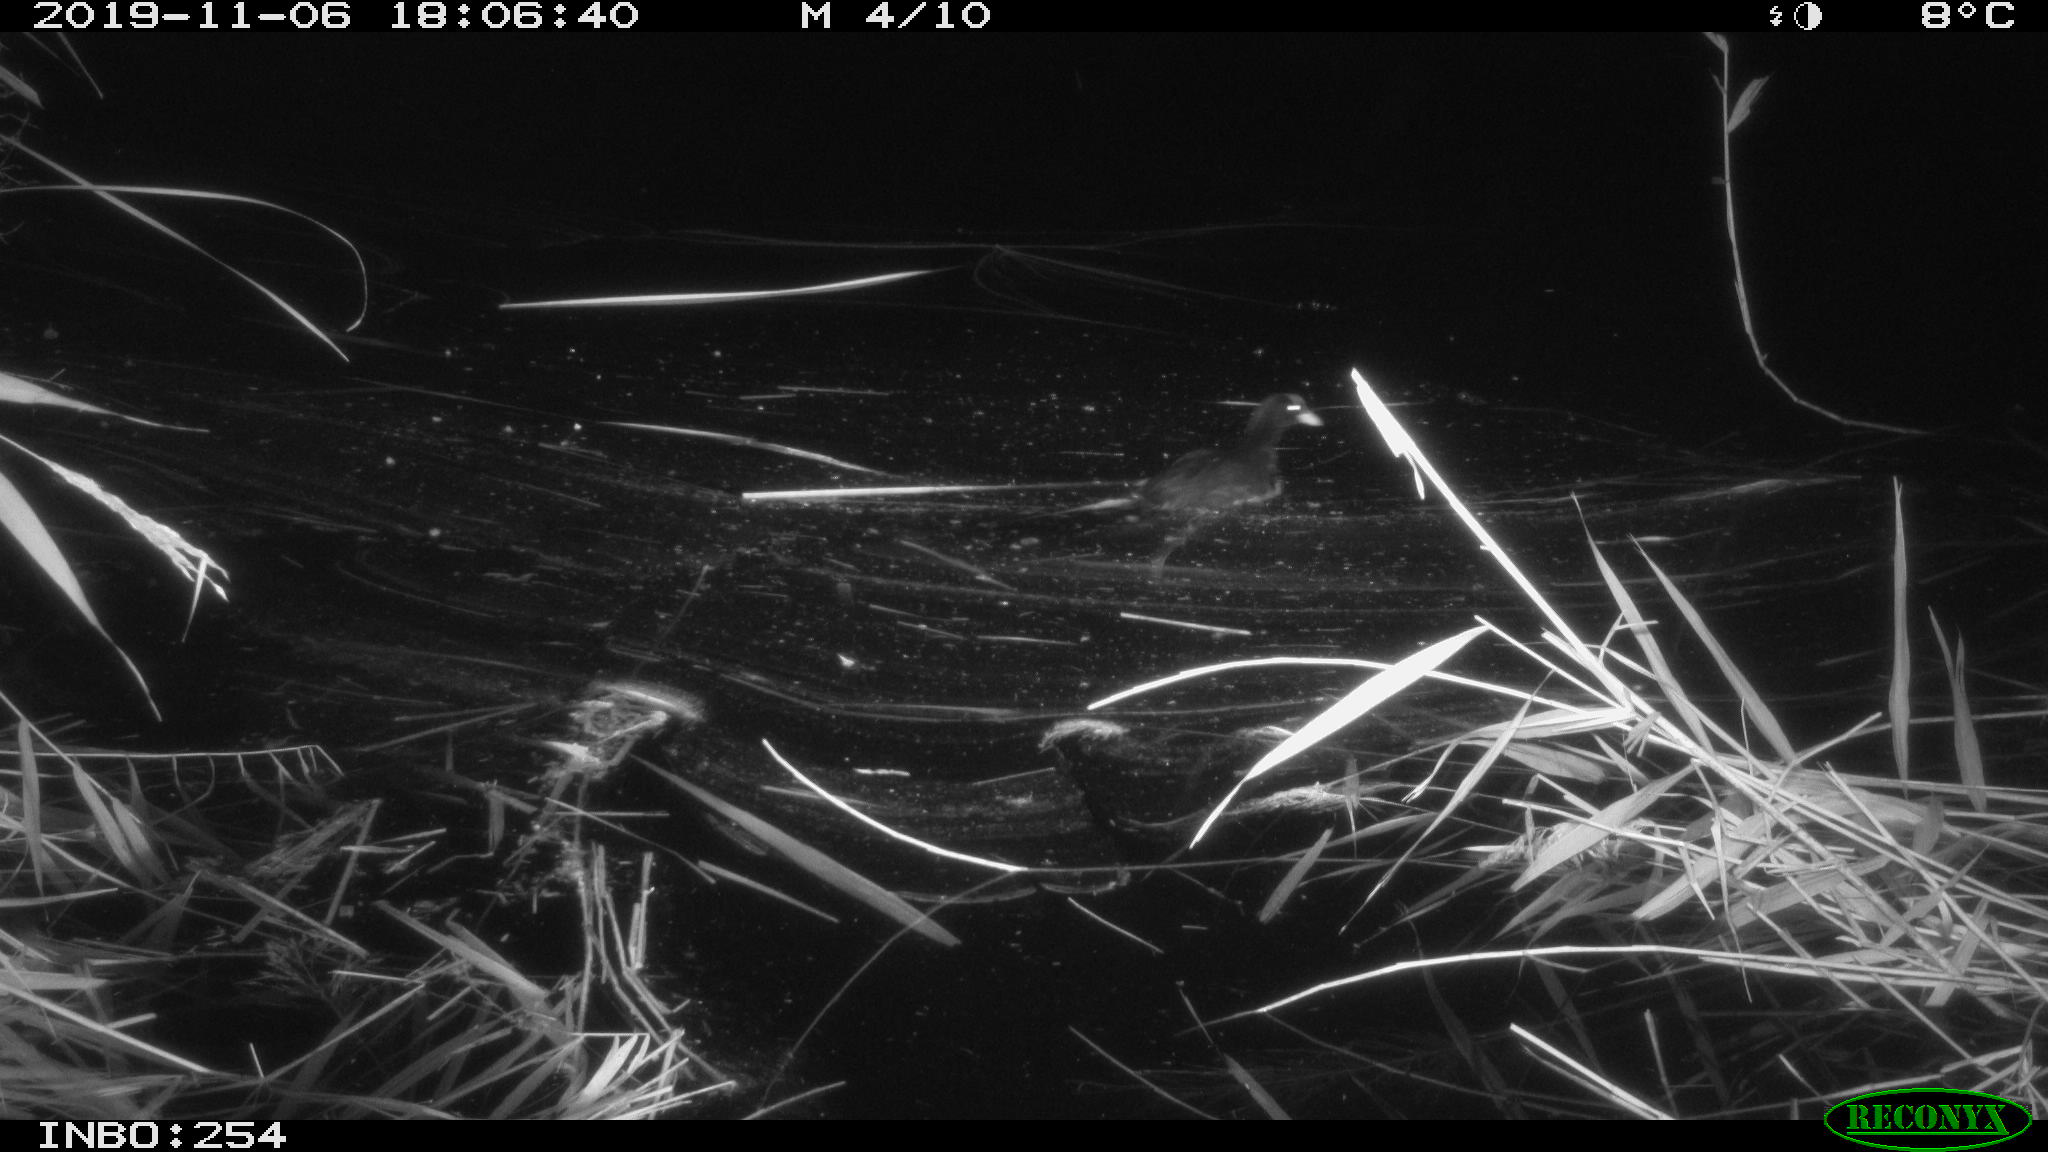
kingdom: Animalia
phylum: Chordata
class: Aves
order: Gruiformes
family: Rallidae
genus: Gallinula
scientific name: Gallinula chloropus
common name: Common moorhen
